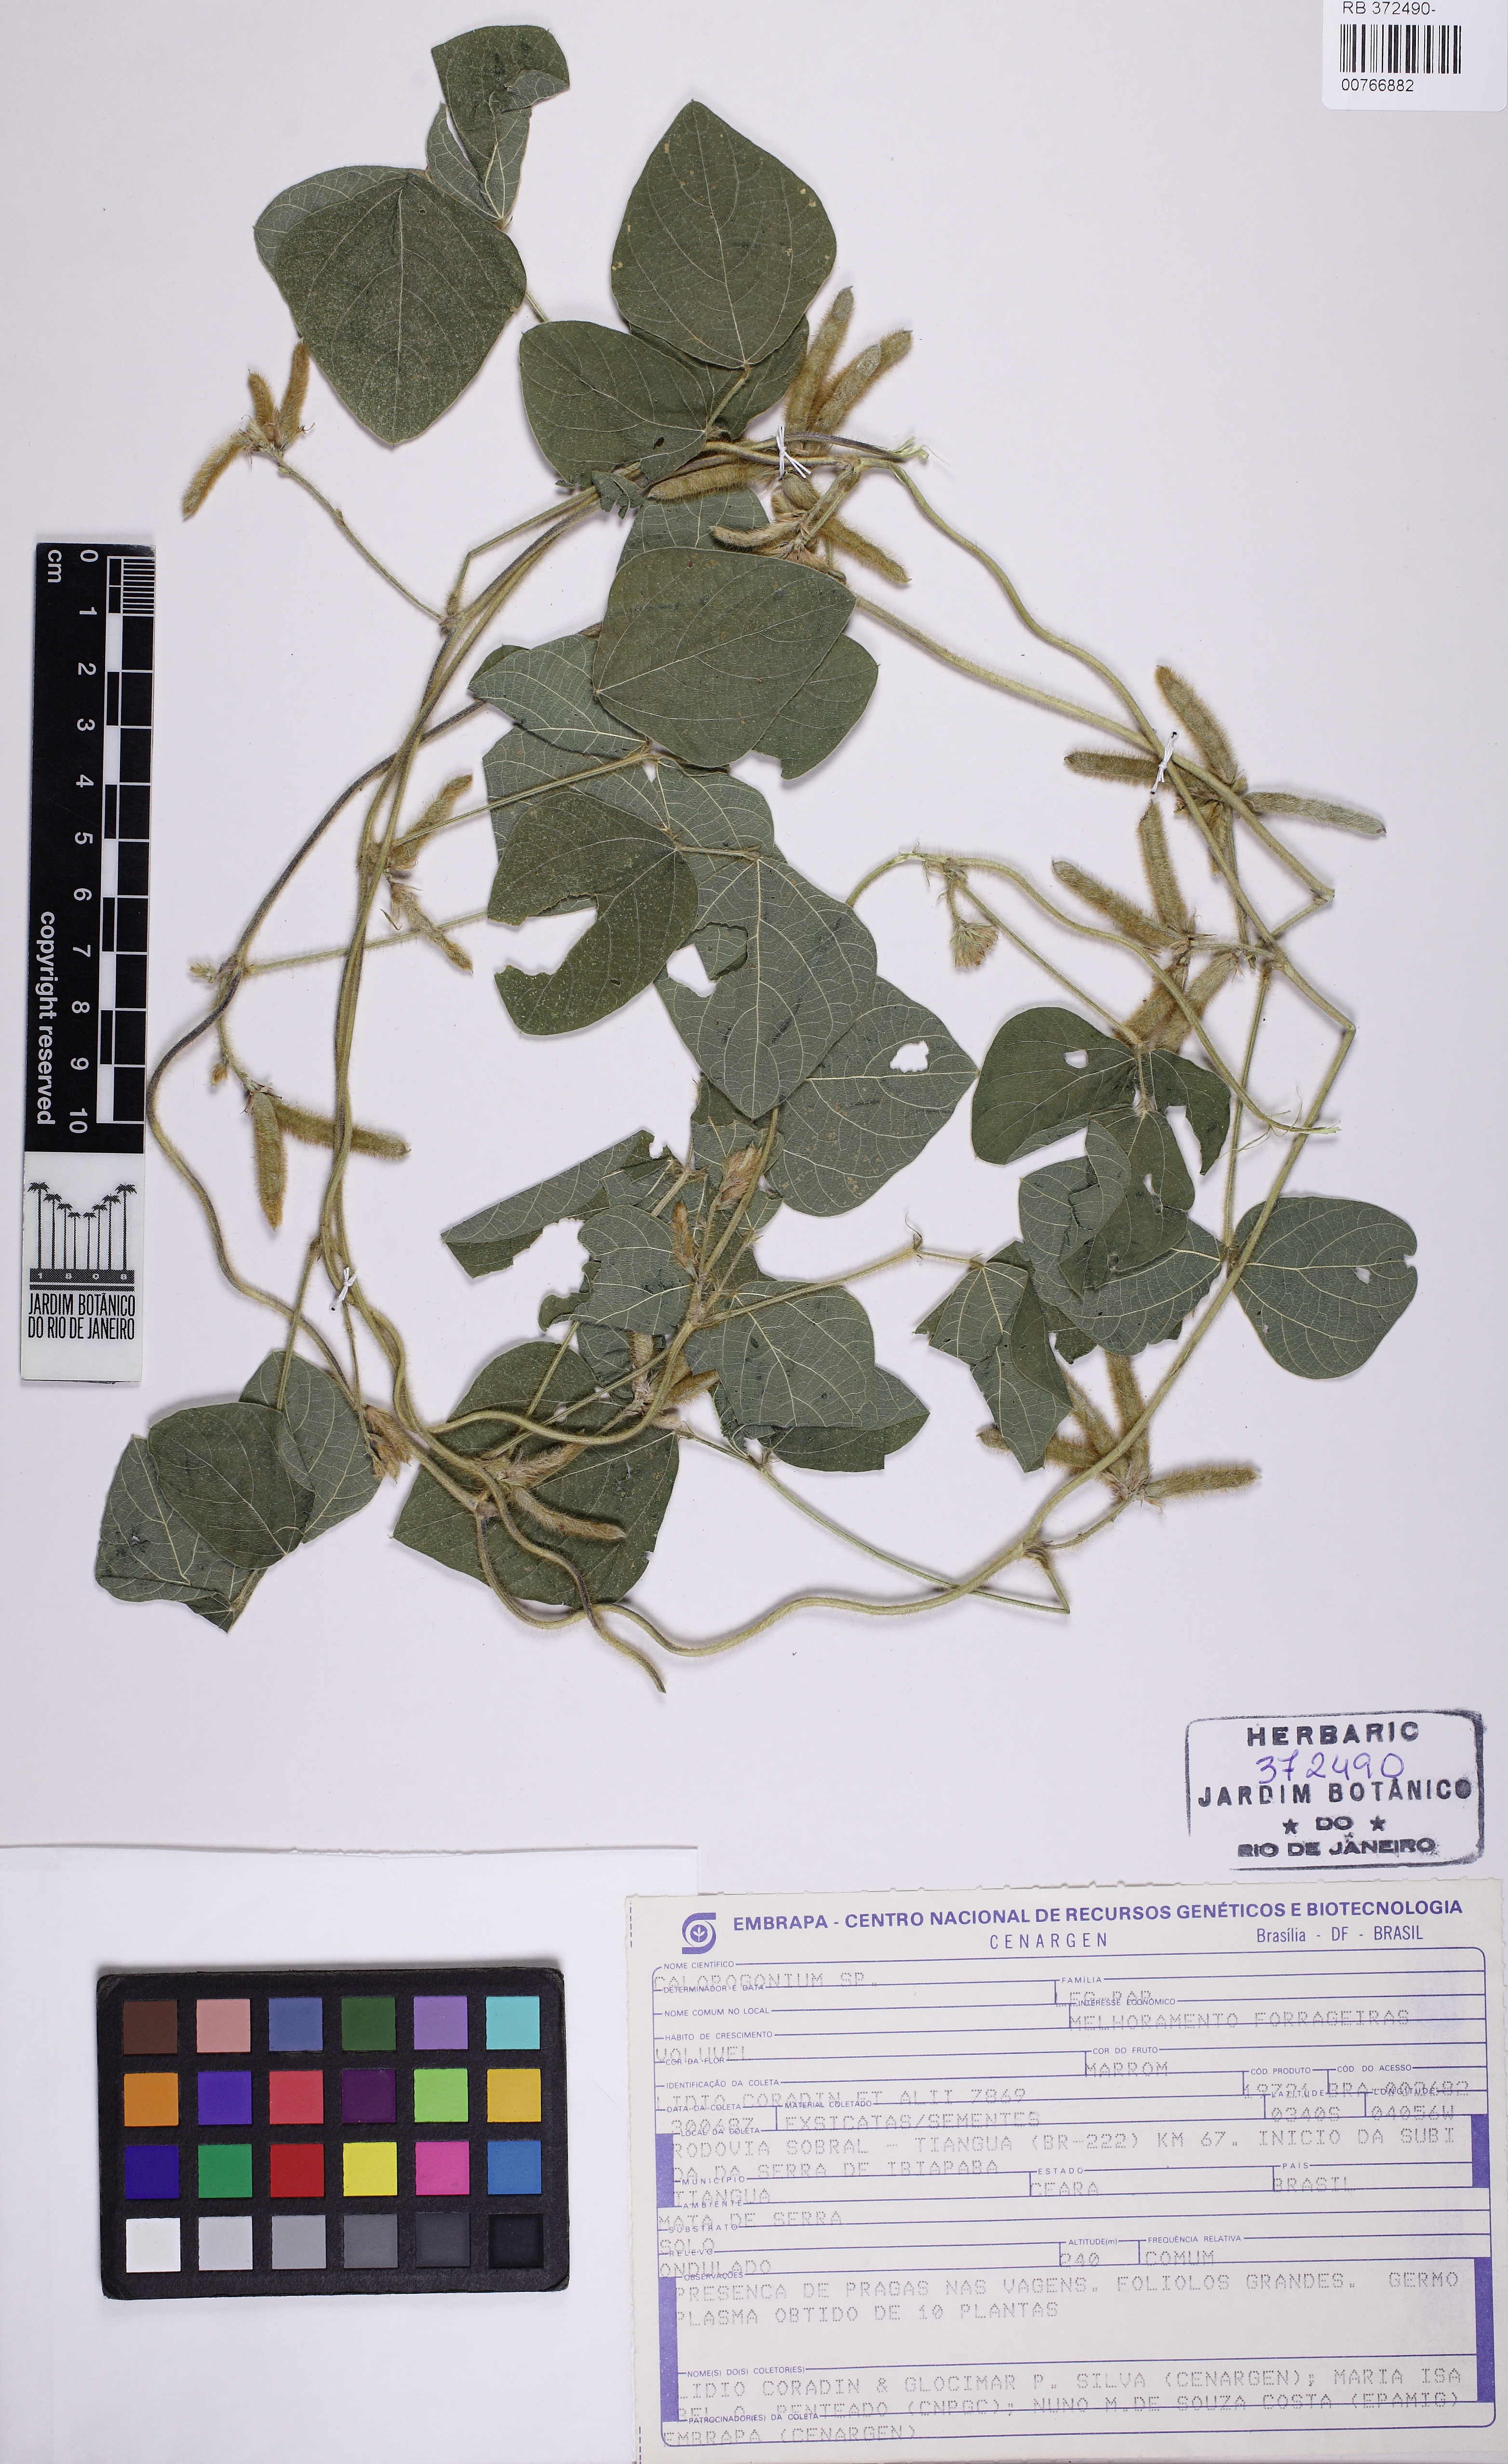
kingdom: Plantae
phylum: Tracheophyta
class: Magnoliopsida
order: Fabales
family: Fabaceae
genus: Calopogonium
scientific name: Calopogonium
